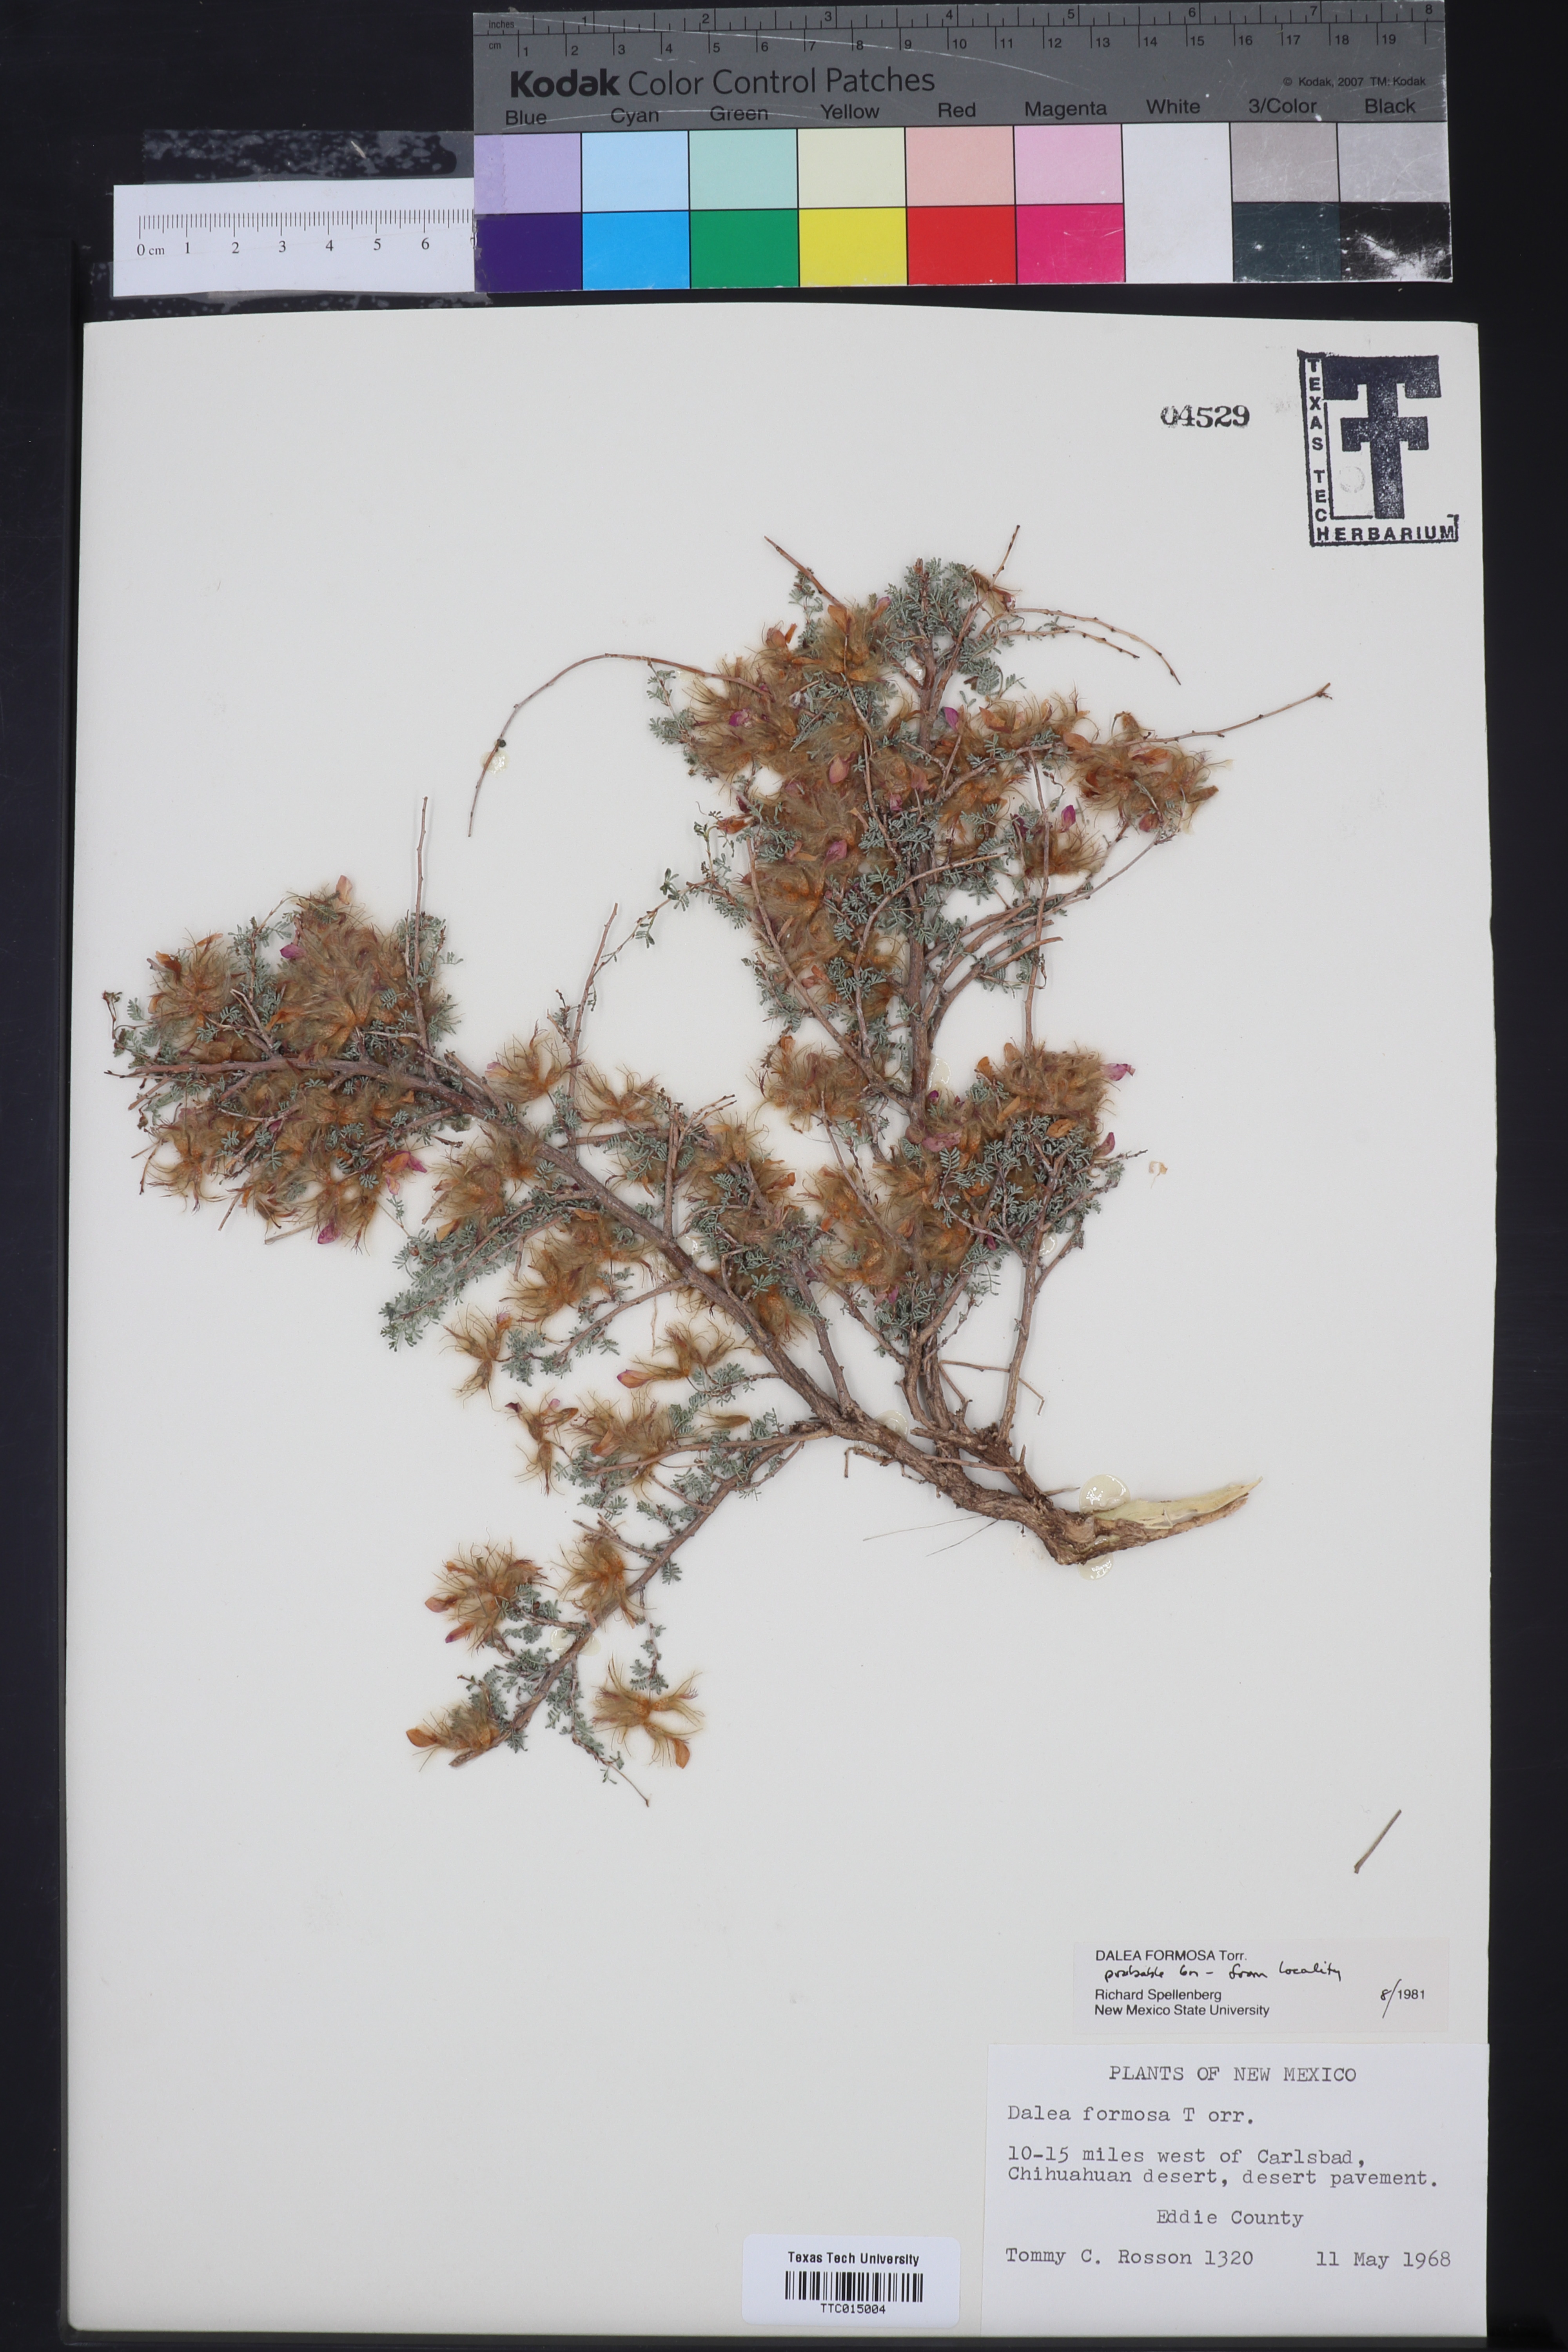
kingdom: Plantae
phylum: Tracheophyta
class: Magnoliopsida
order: Fabales
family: Fabaceae
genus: Dalea
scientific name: Dalea formosa
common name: Feather-plume dalea
